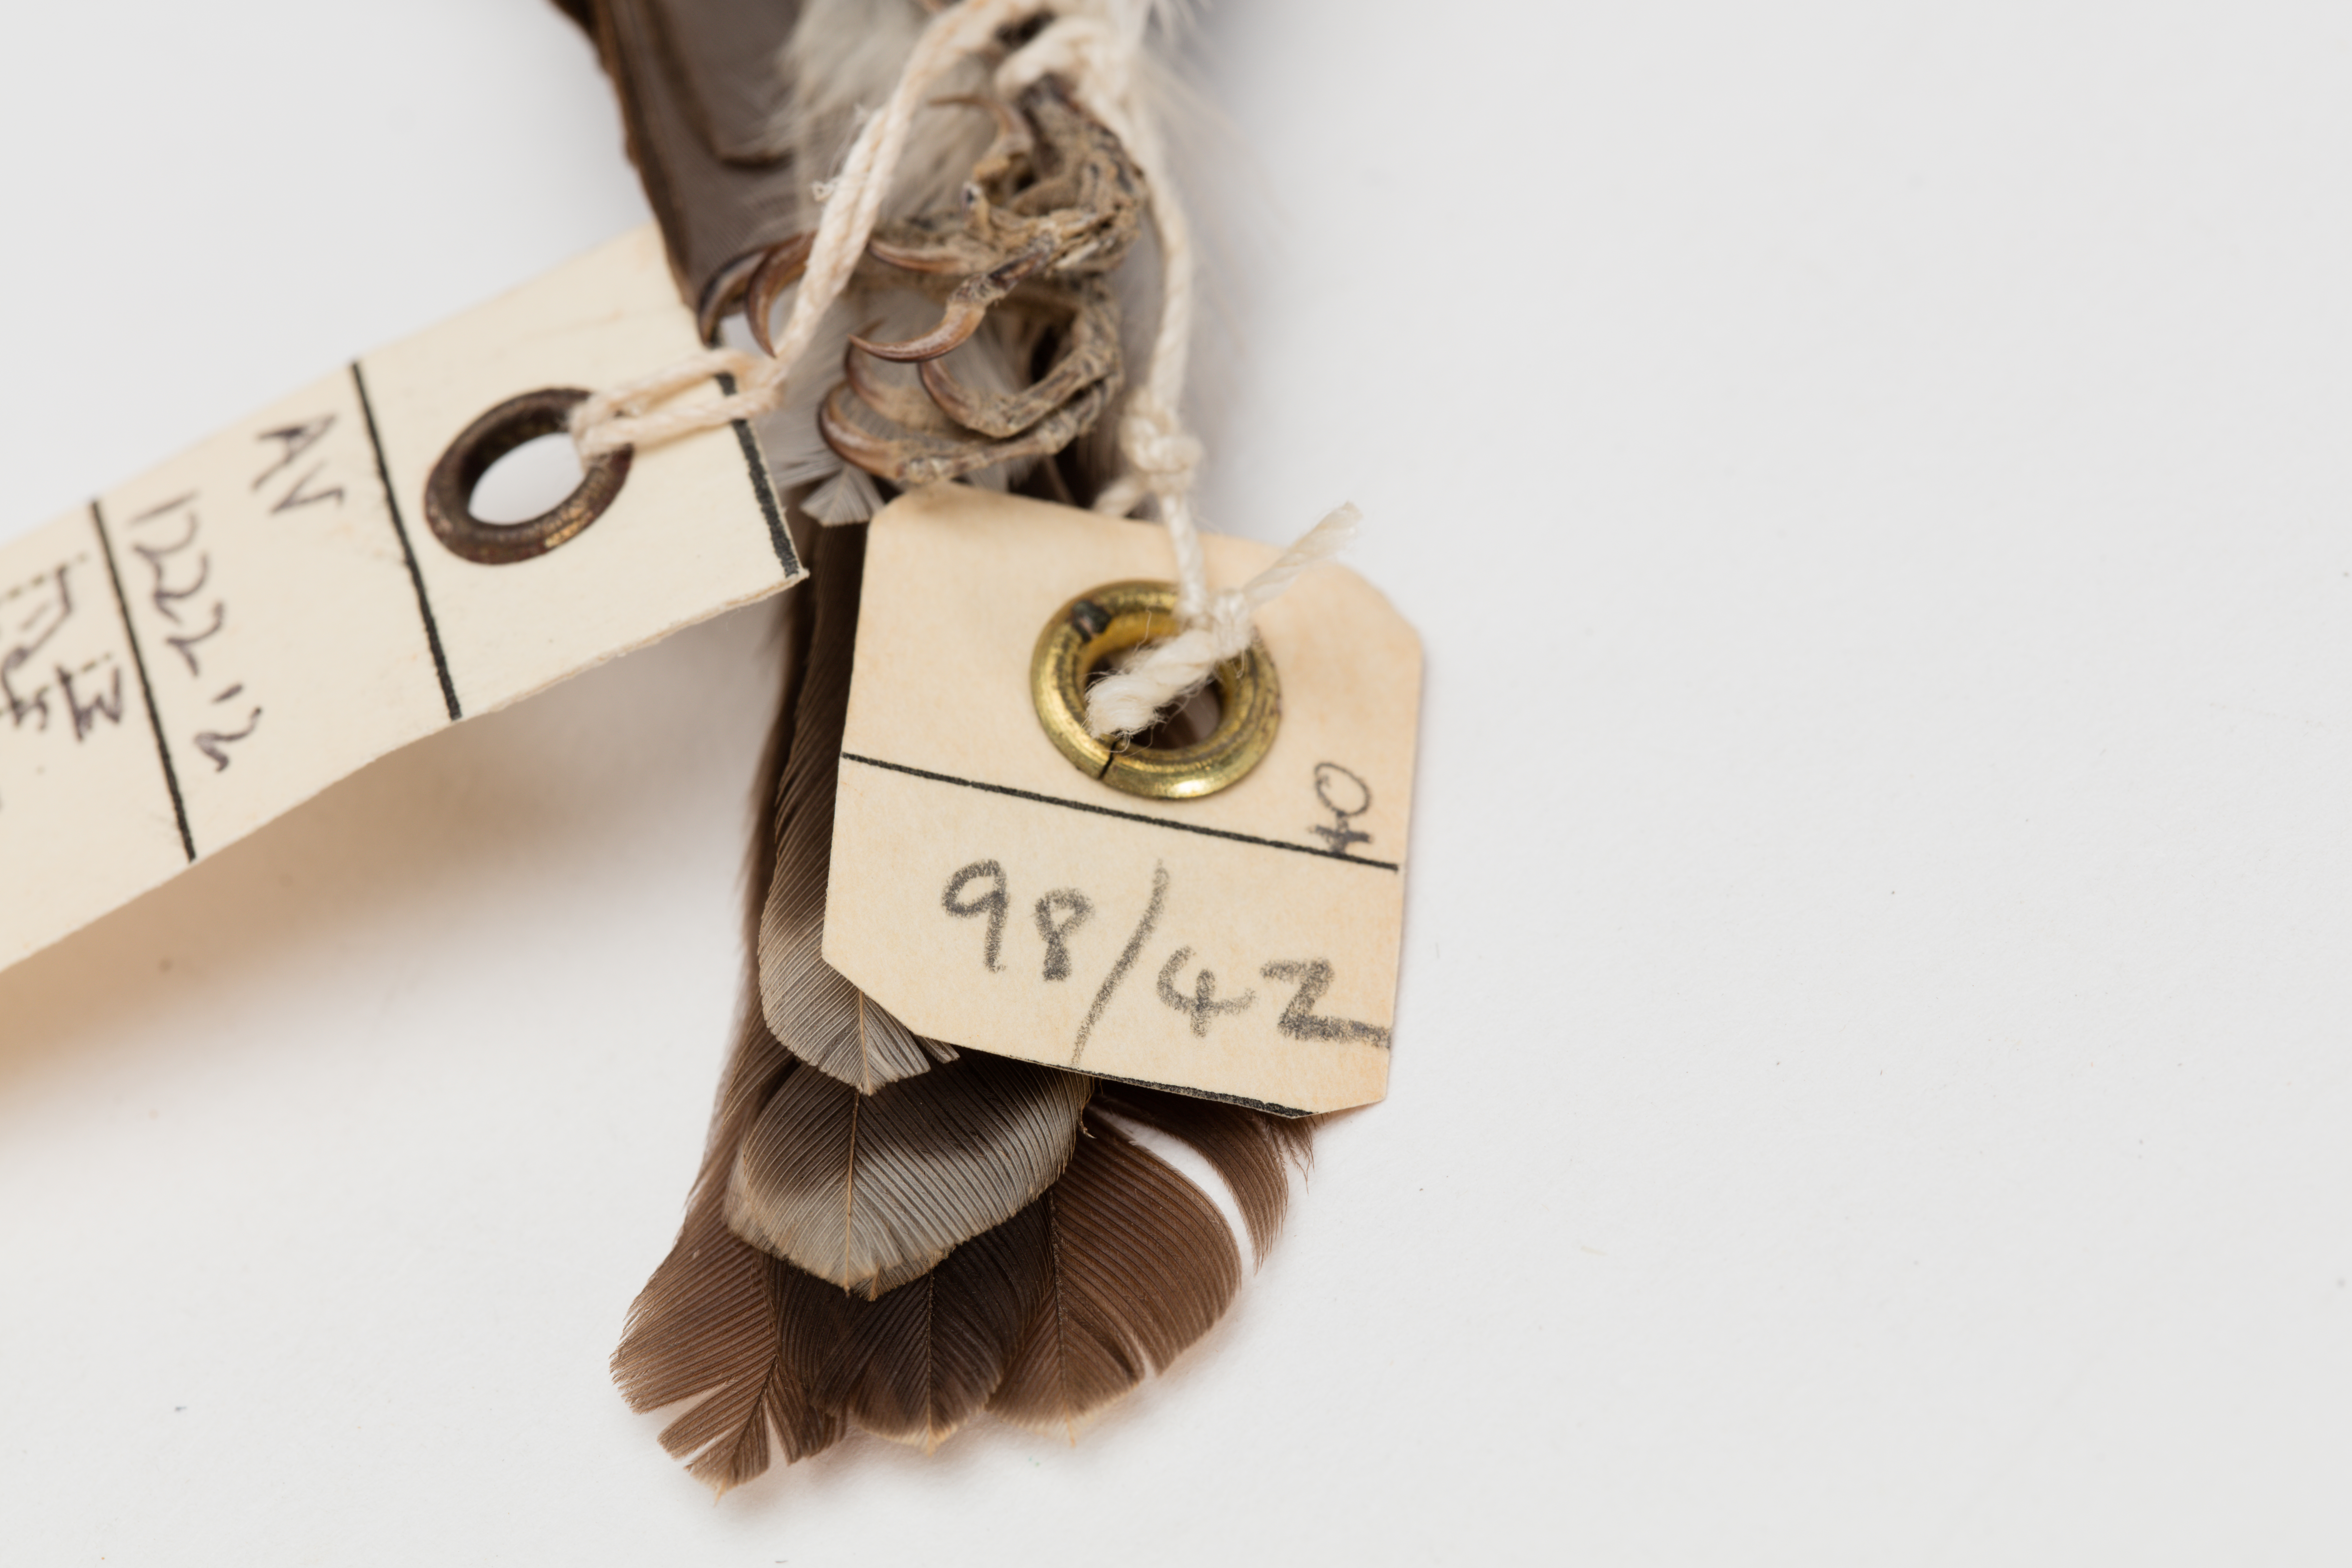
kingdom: Animalia
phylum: Chordata
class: Aves
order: Passeriformes
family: Monarchidae
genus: Myiagra
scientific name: Myiagra azureocapilla
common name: Azure-crested flycatcher
